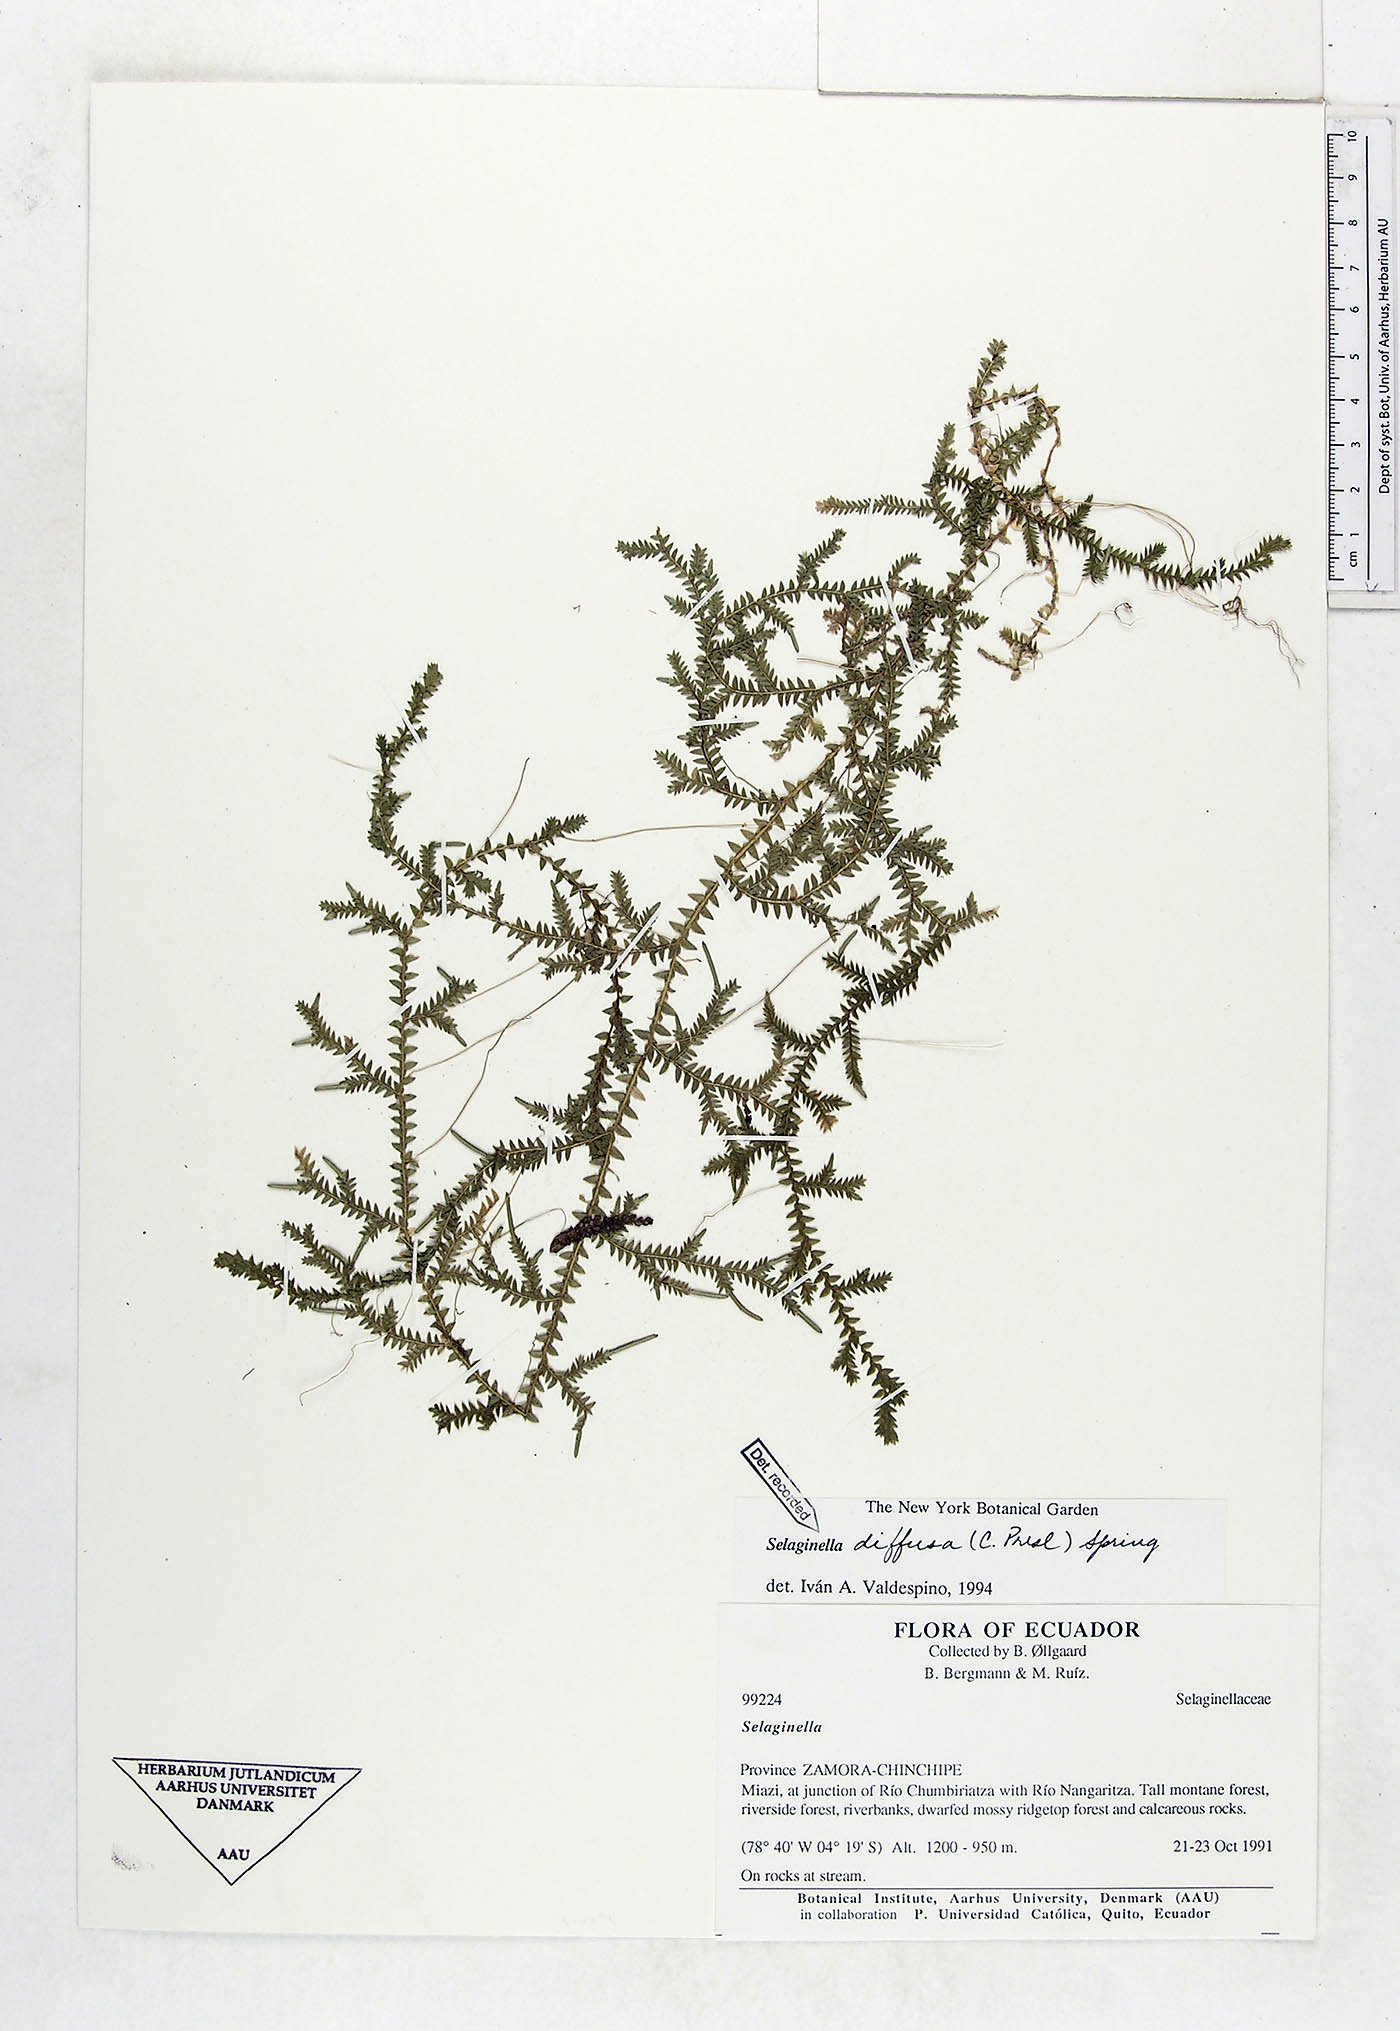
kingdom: Plantae
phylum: Tracheophyta
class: Lycopodiopsida
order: Selaginellales
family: Selaginellaceae
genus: Selaginella
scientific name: Selaginella diffusa
